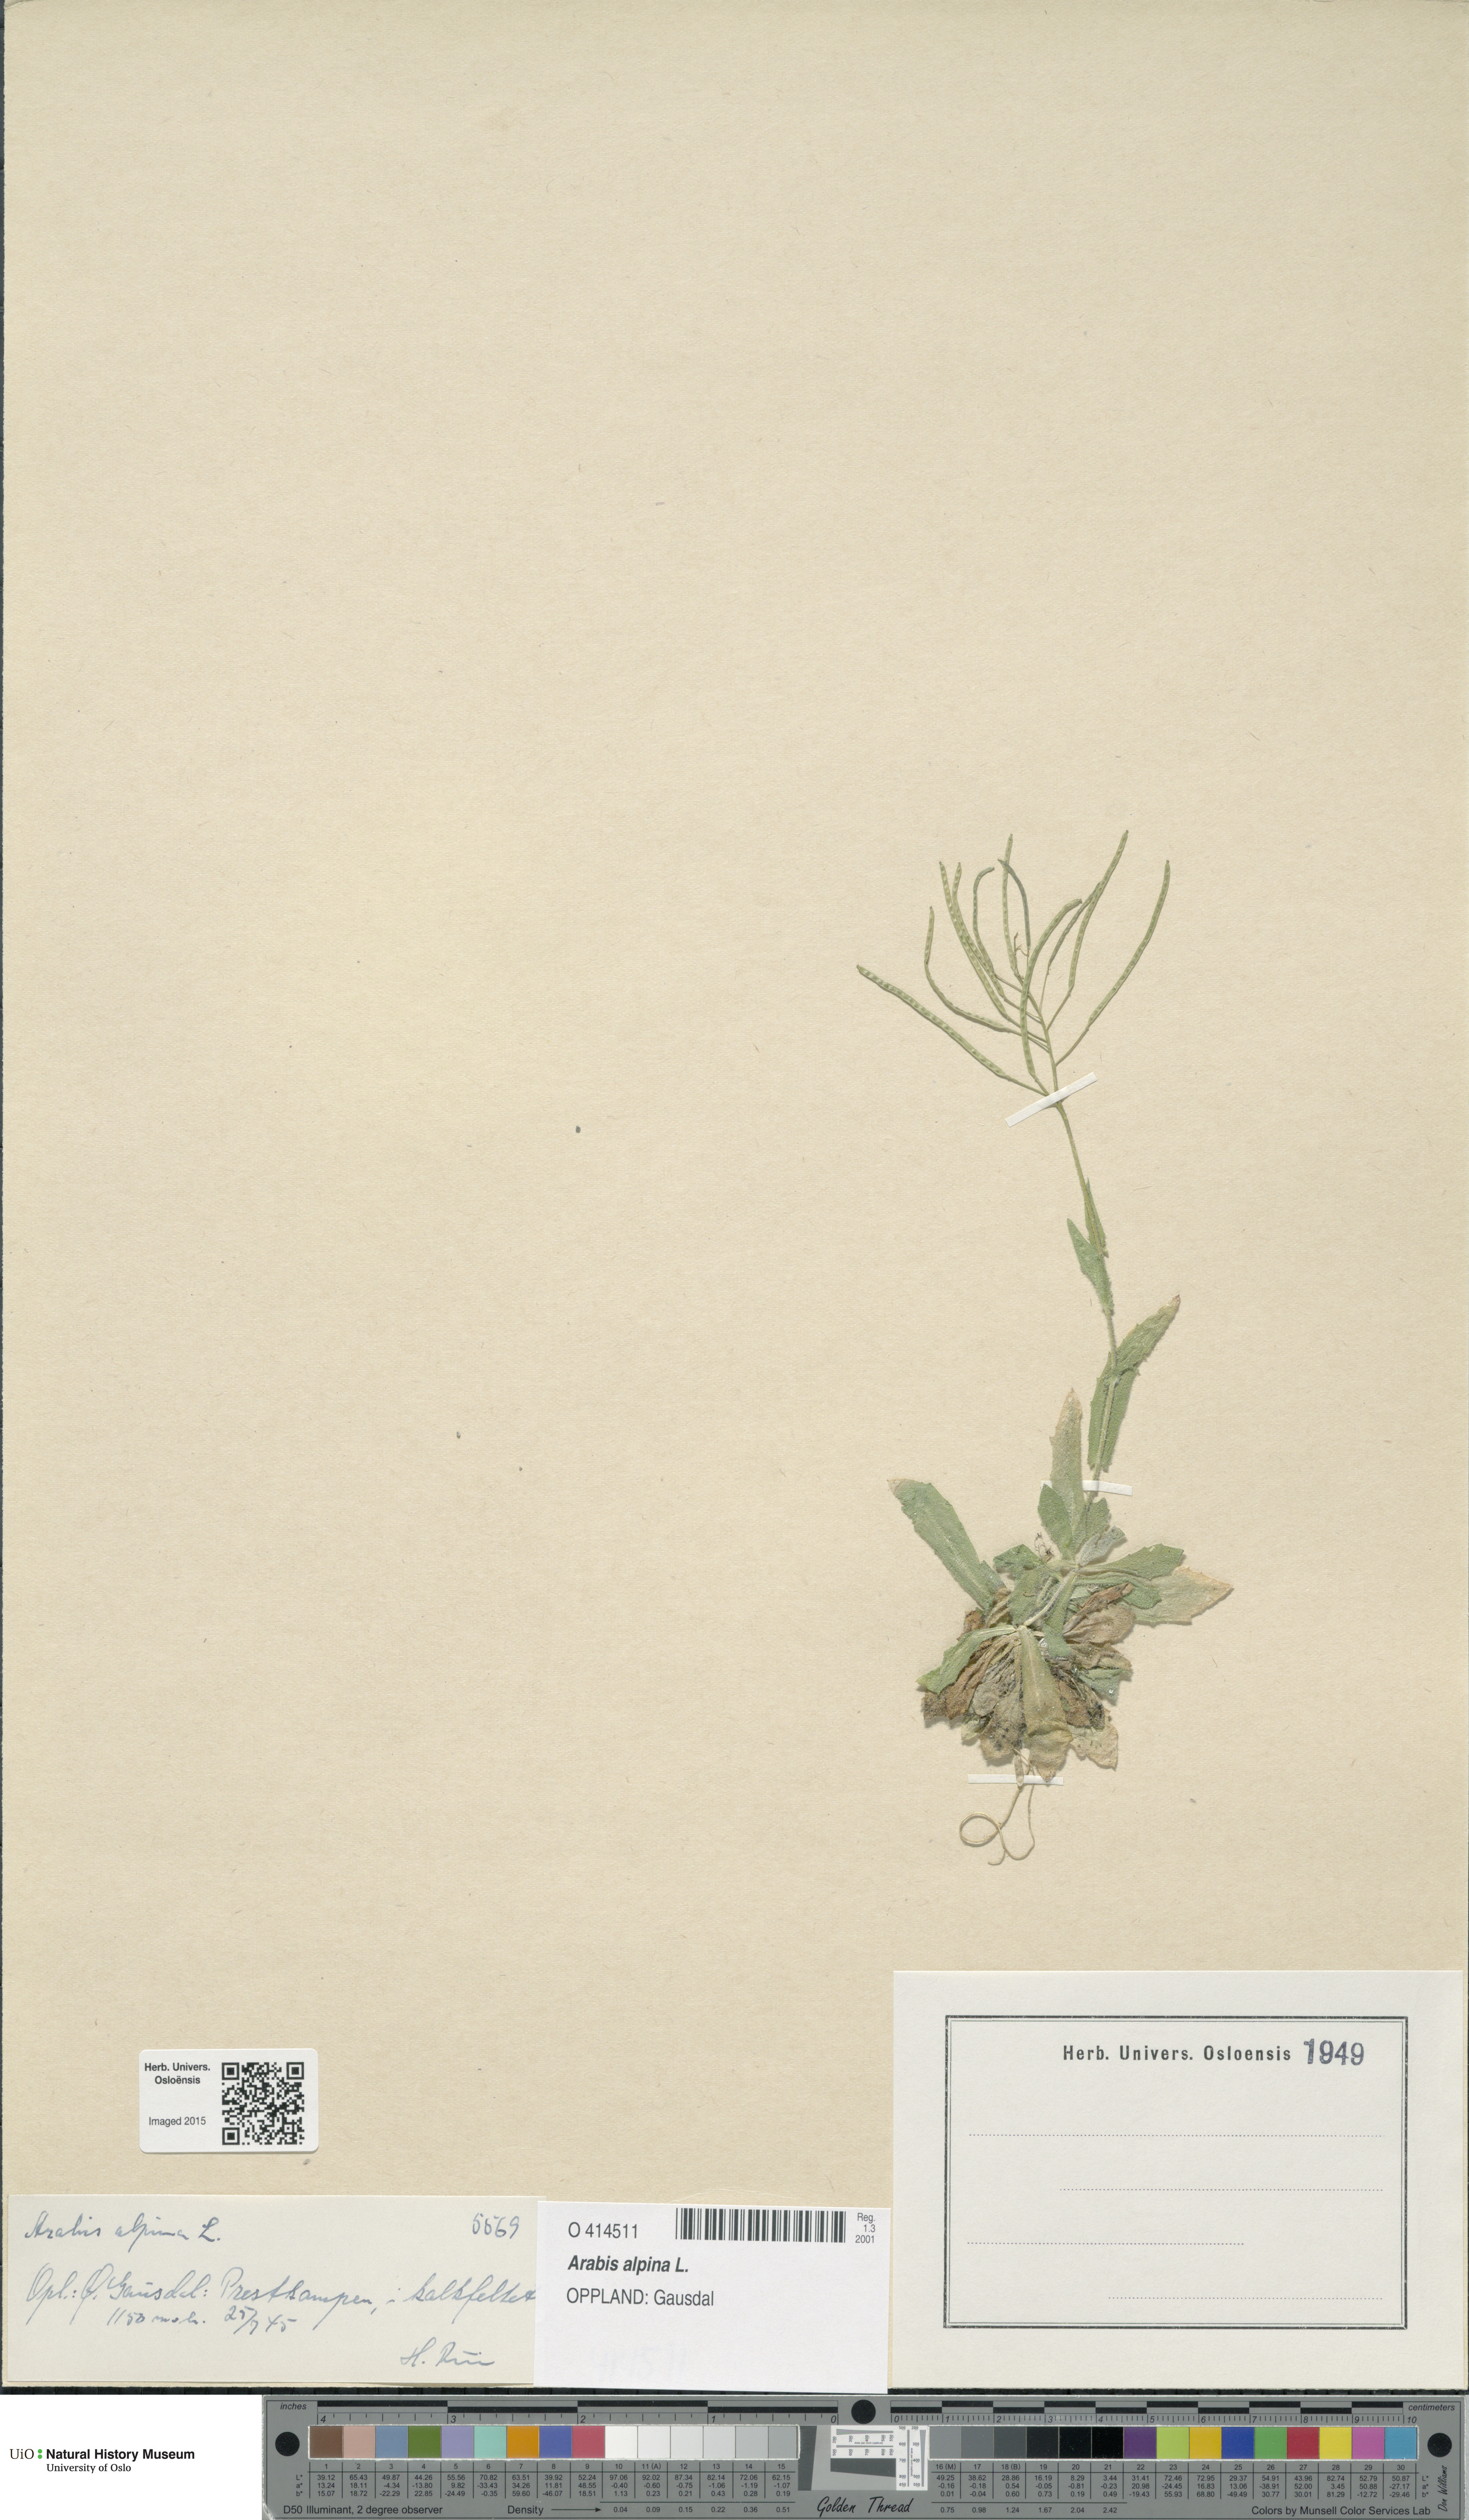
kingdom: Plantae
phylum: Tracheophyta
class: Magnoliopsida
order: Brassicales
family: Brassicaceae
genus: Arabis
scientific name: Arabis alpina
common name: Alpine rock-cress
